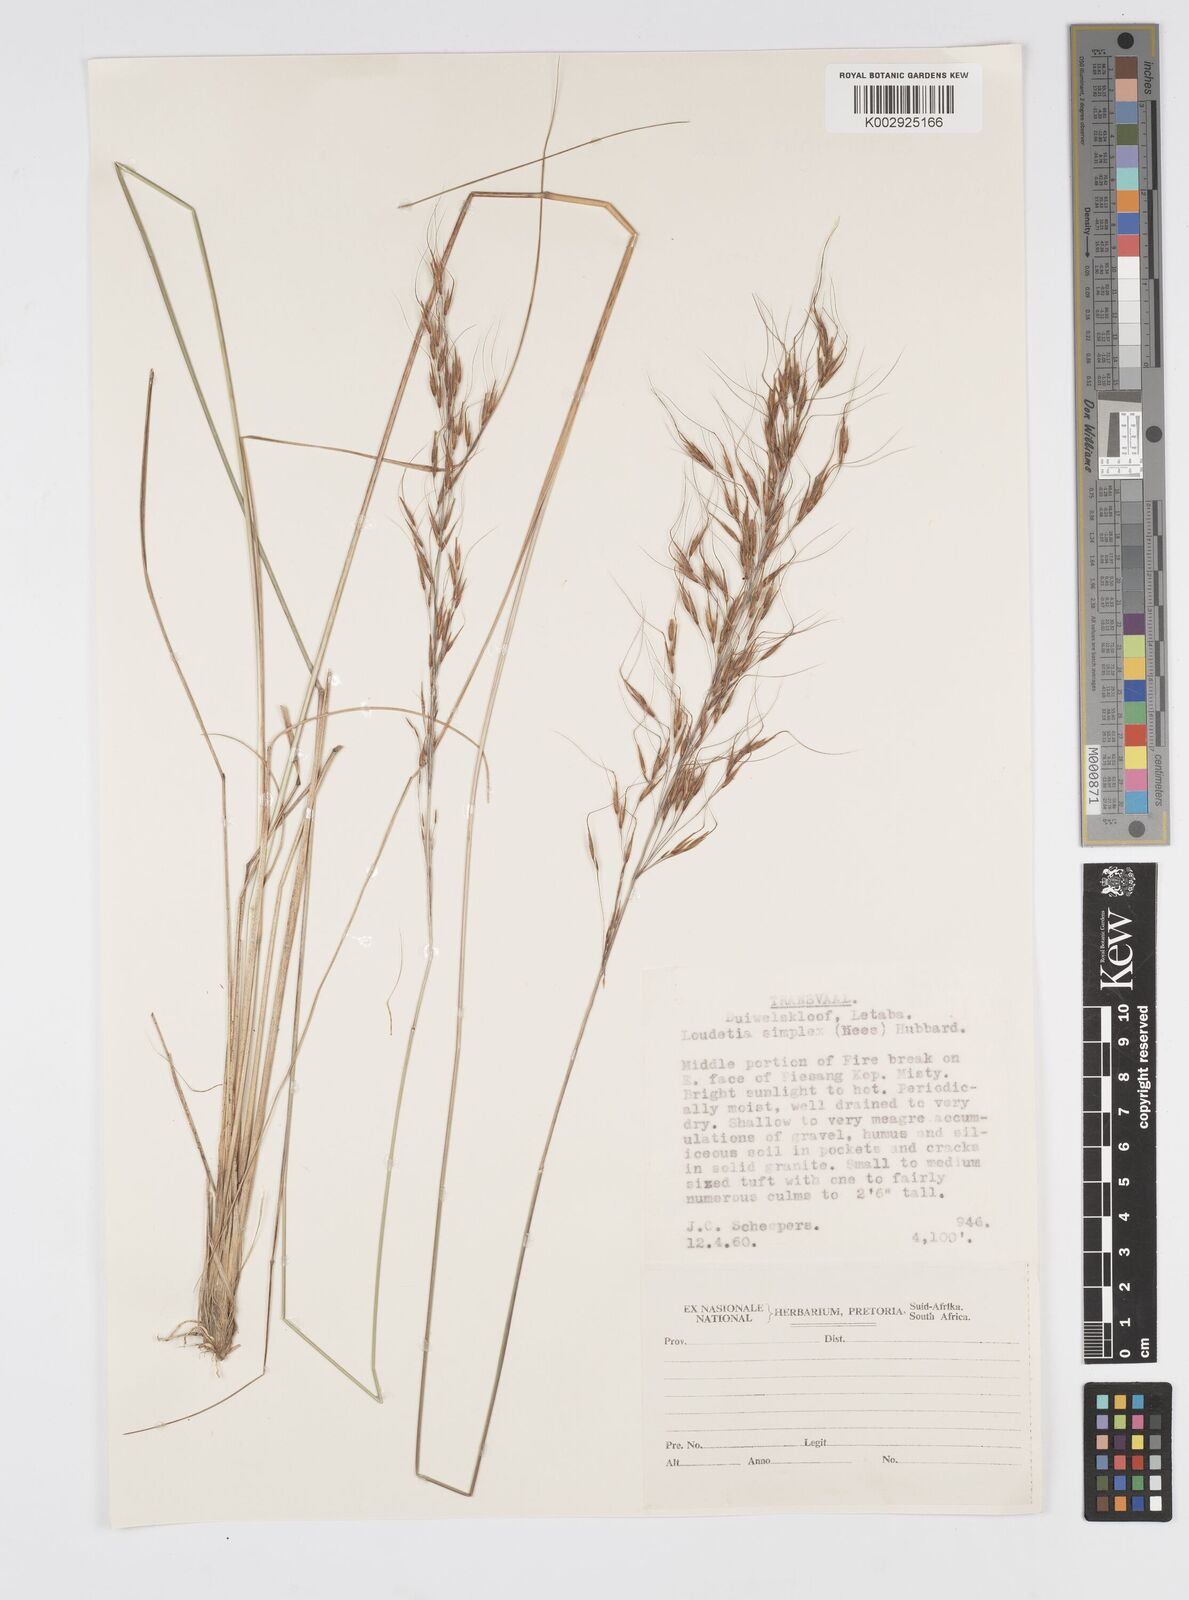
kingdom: Plantae
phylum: Tracheophyta
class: Liliopsida
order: Poales
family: Poaceae
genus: Loudetia
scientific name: Loudetia simplex
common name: Common russet grass
